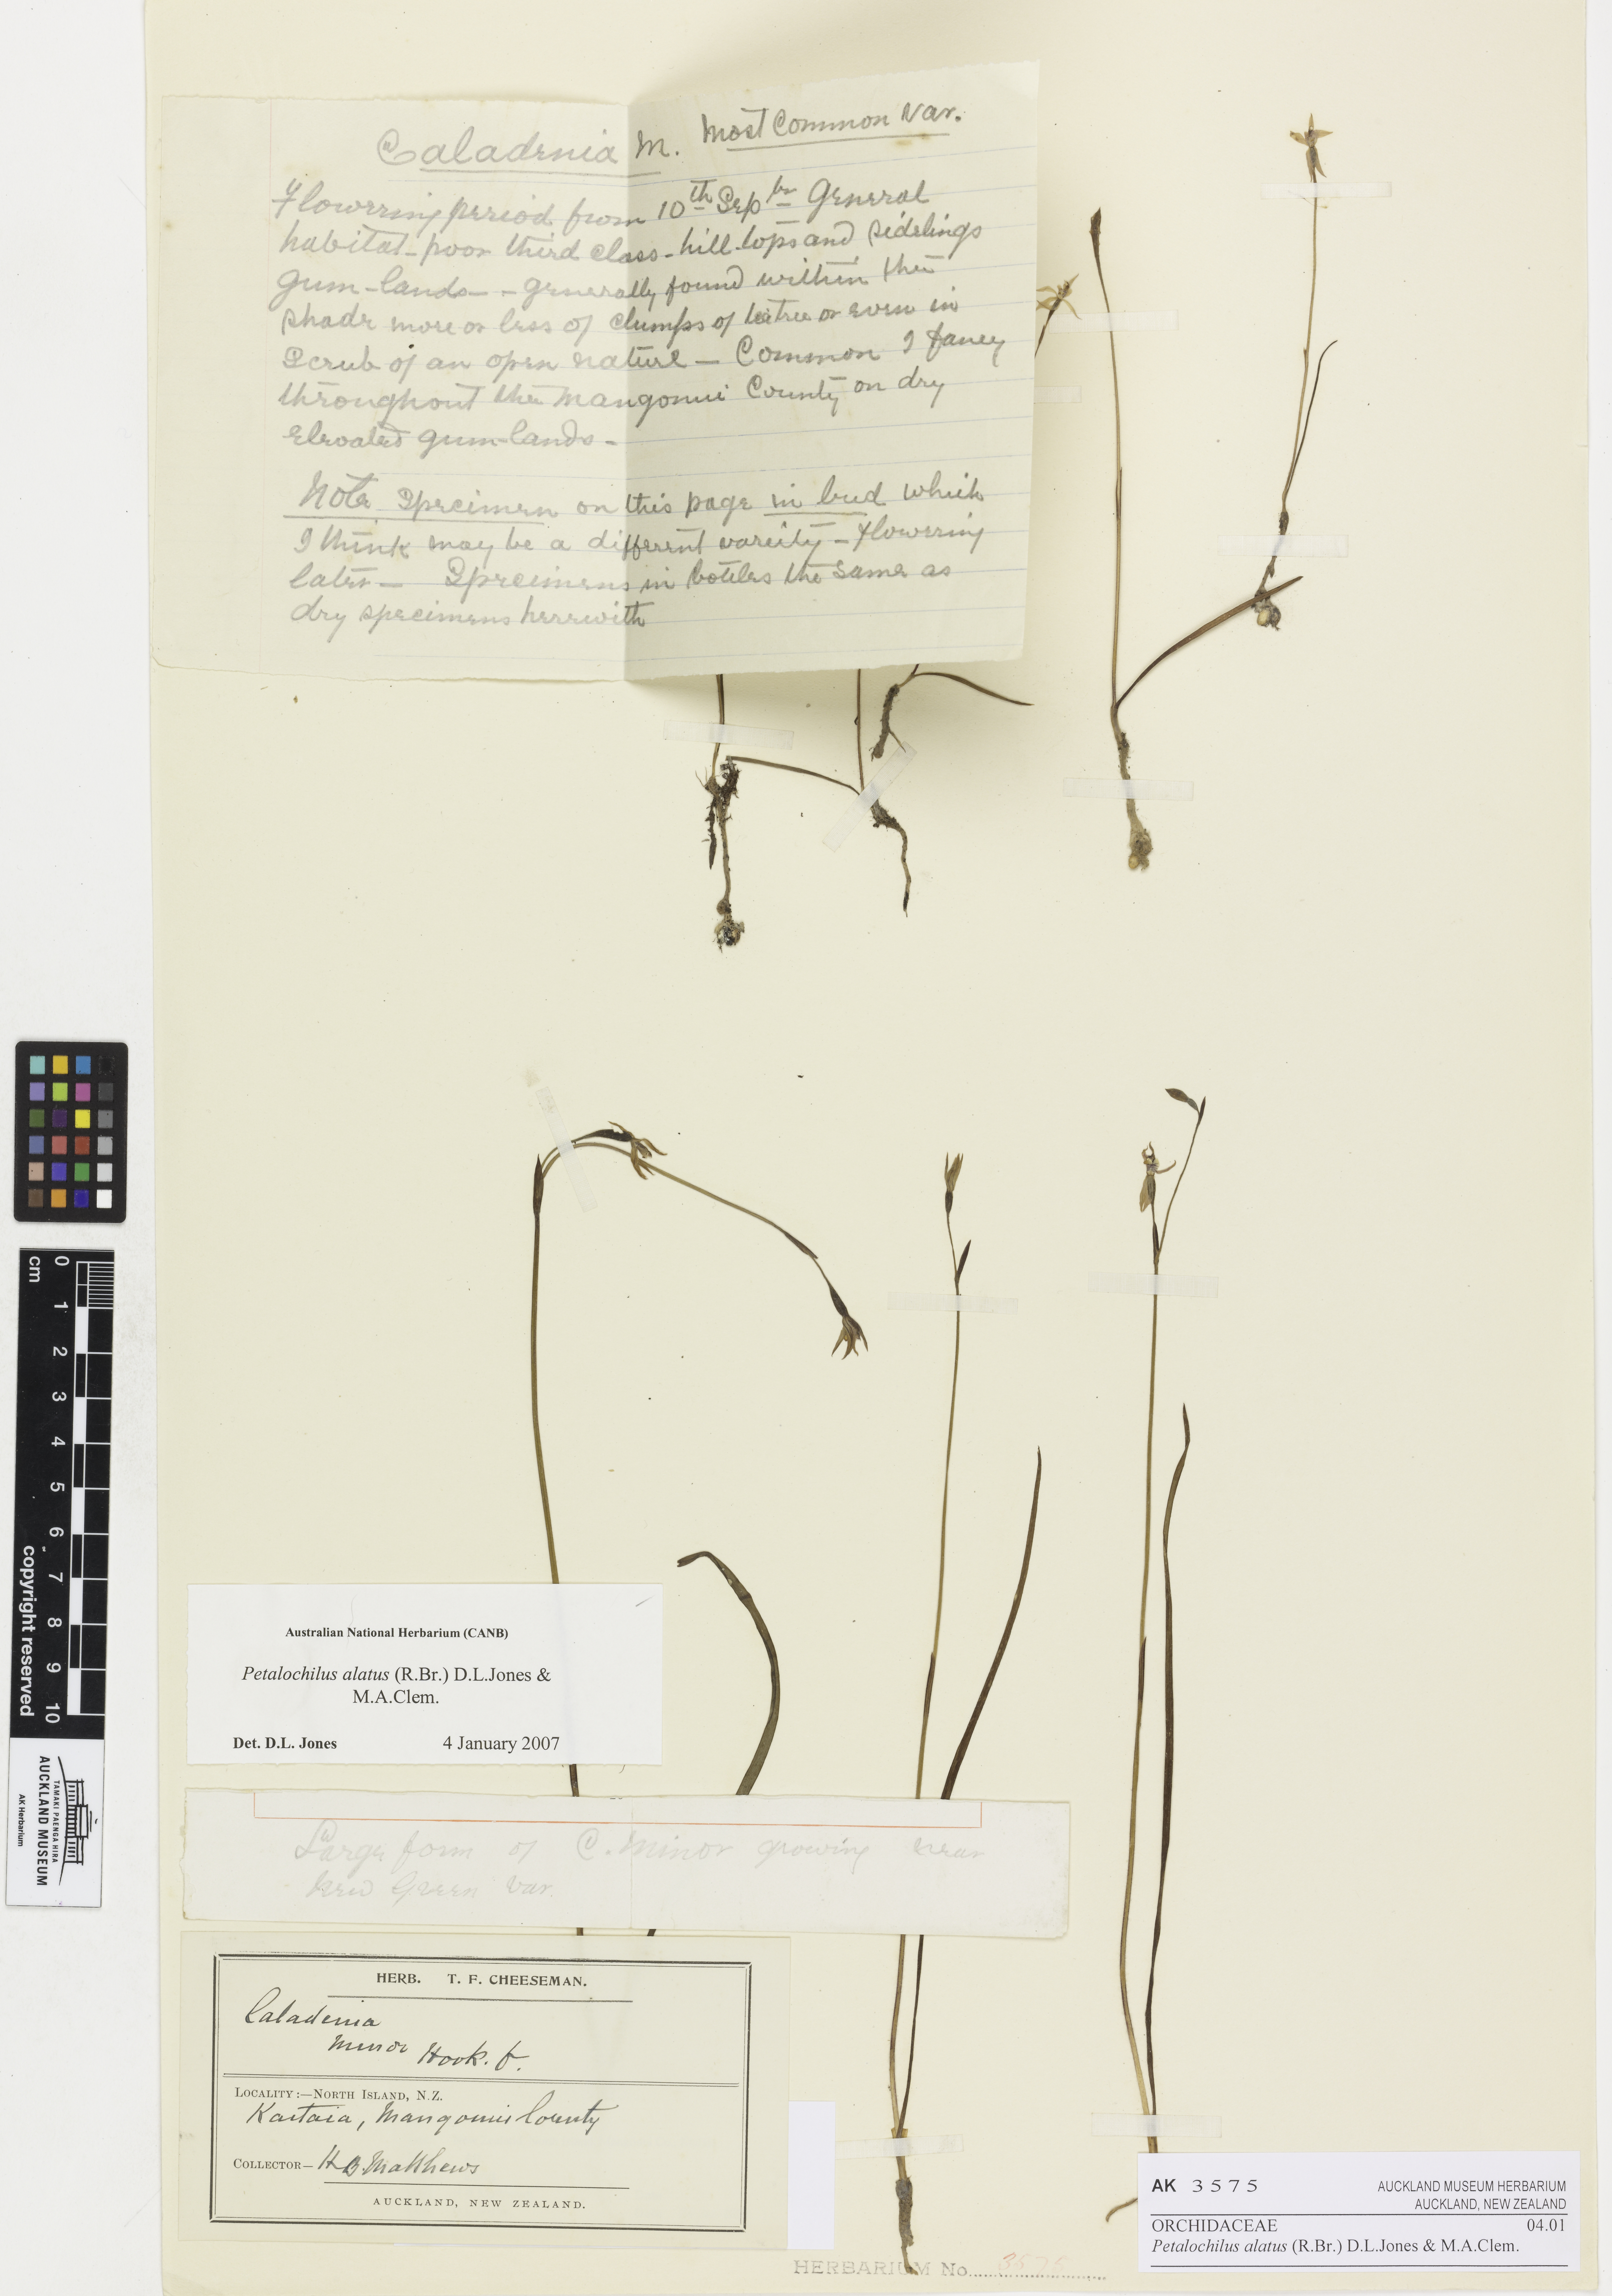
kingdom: Plantae
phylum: Tracheophyta
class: Liliopsida
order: Asparagales
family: Orchidaceae
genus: Caladenia
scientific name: Caladenia alata
